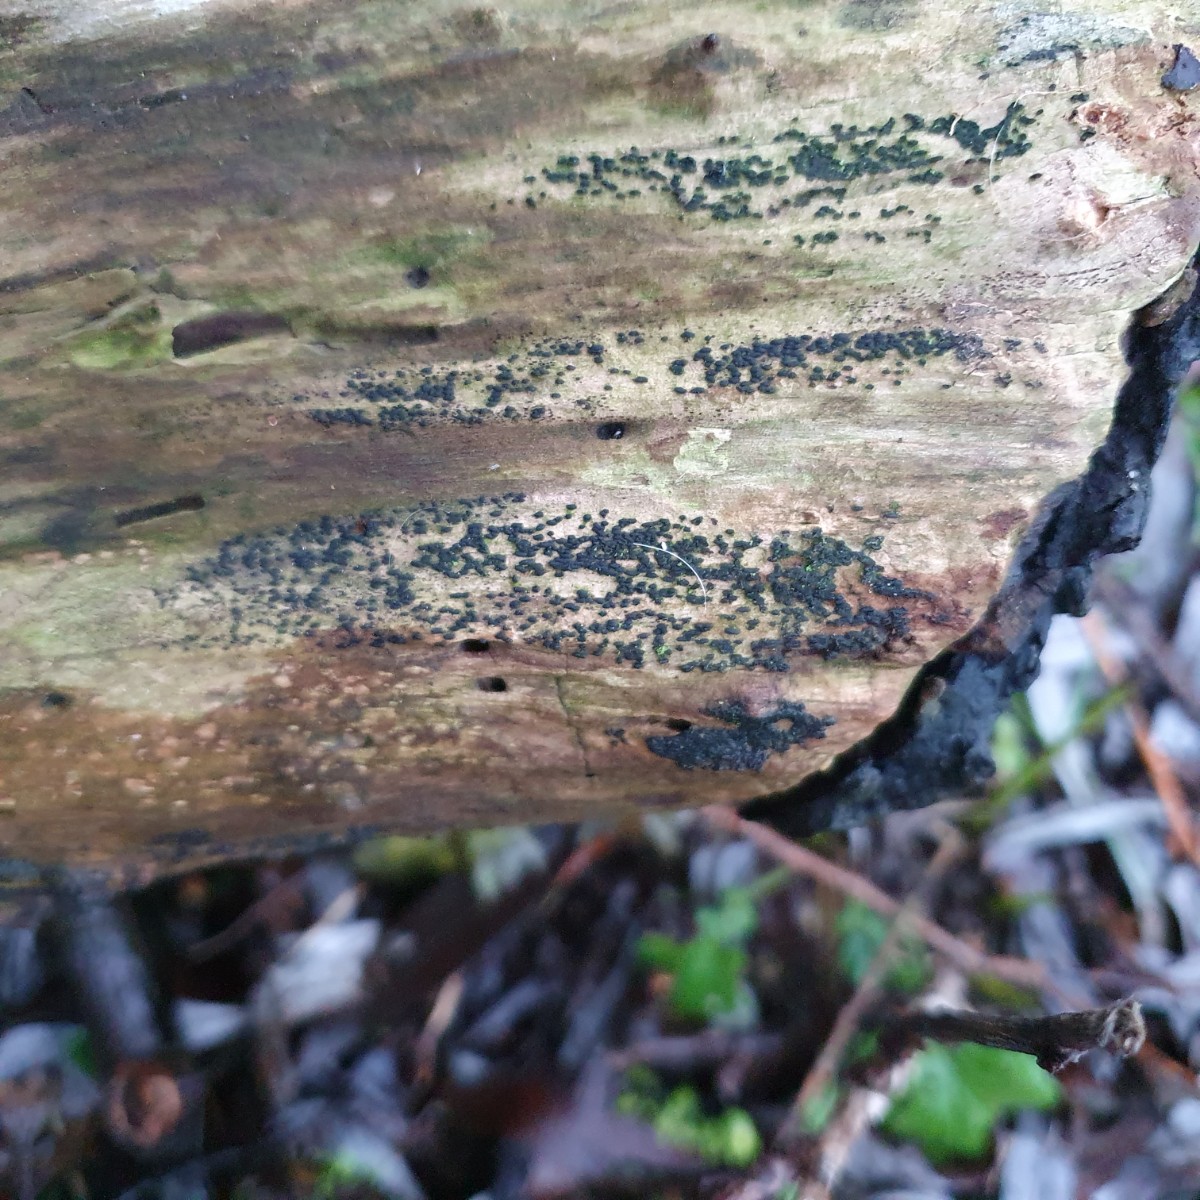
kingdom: Fungi
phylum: Ascomycota
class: Dothideomycetes
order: Hysteriales
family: Hysteriaceae
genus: Hysterium
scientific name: Hysterium acuminatum
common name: almindelig kulmund
